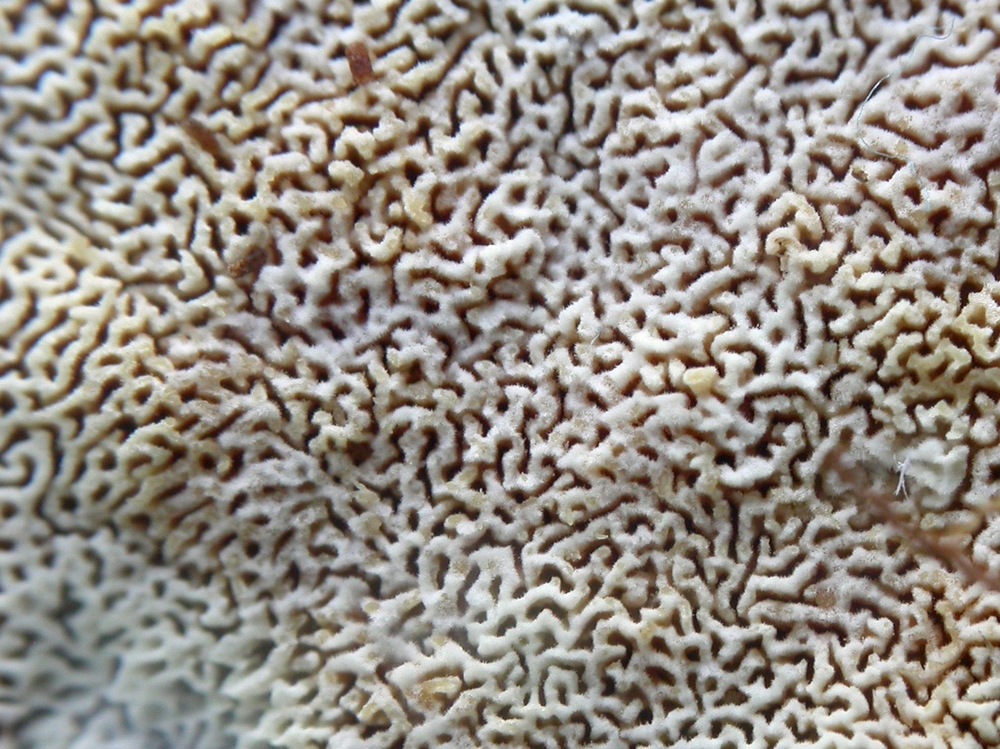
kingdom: Fungi
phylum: Basidiomycota
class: Agaricomycetes
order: Hymenochaetales
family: Schizoporaceae
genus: Xylodon
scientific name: Xylodon subtropicus
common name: labyrint-tandsvamp
